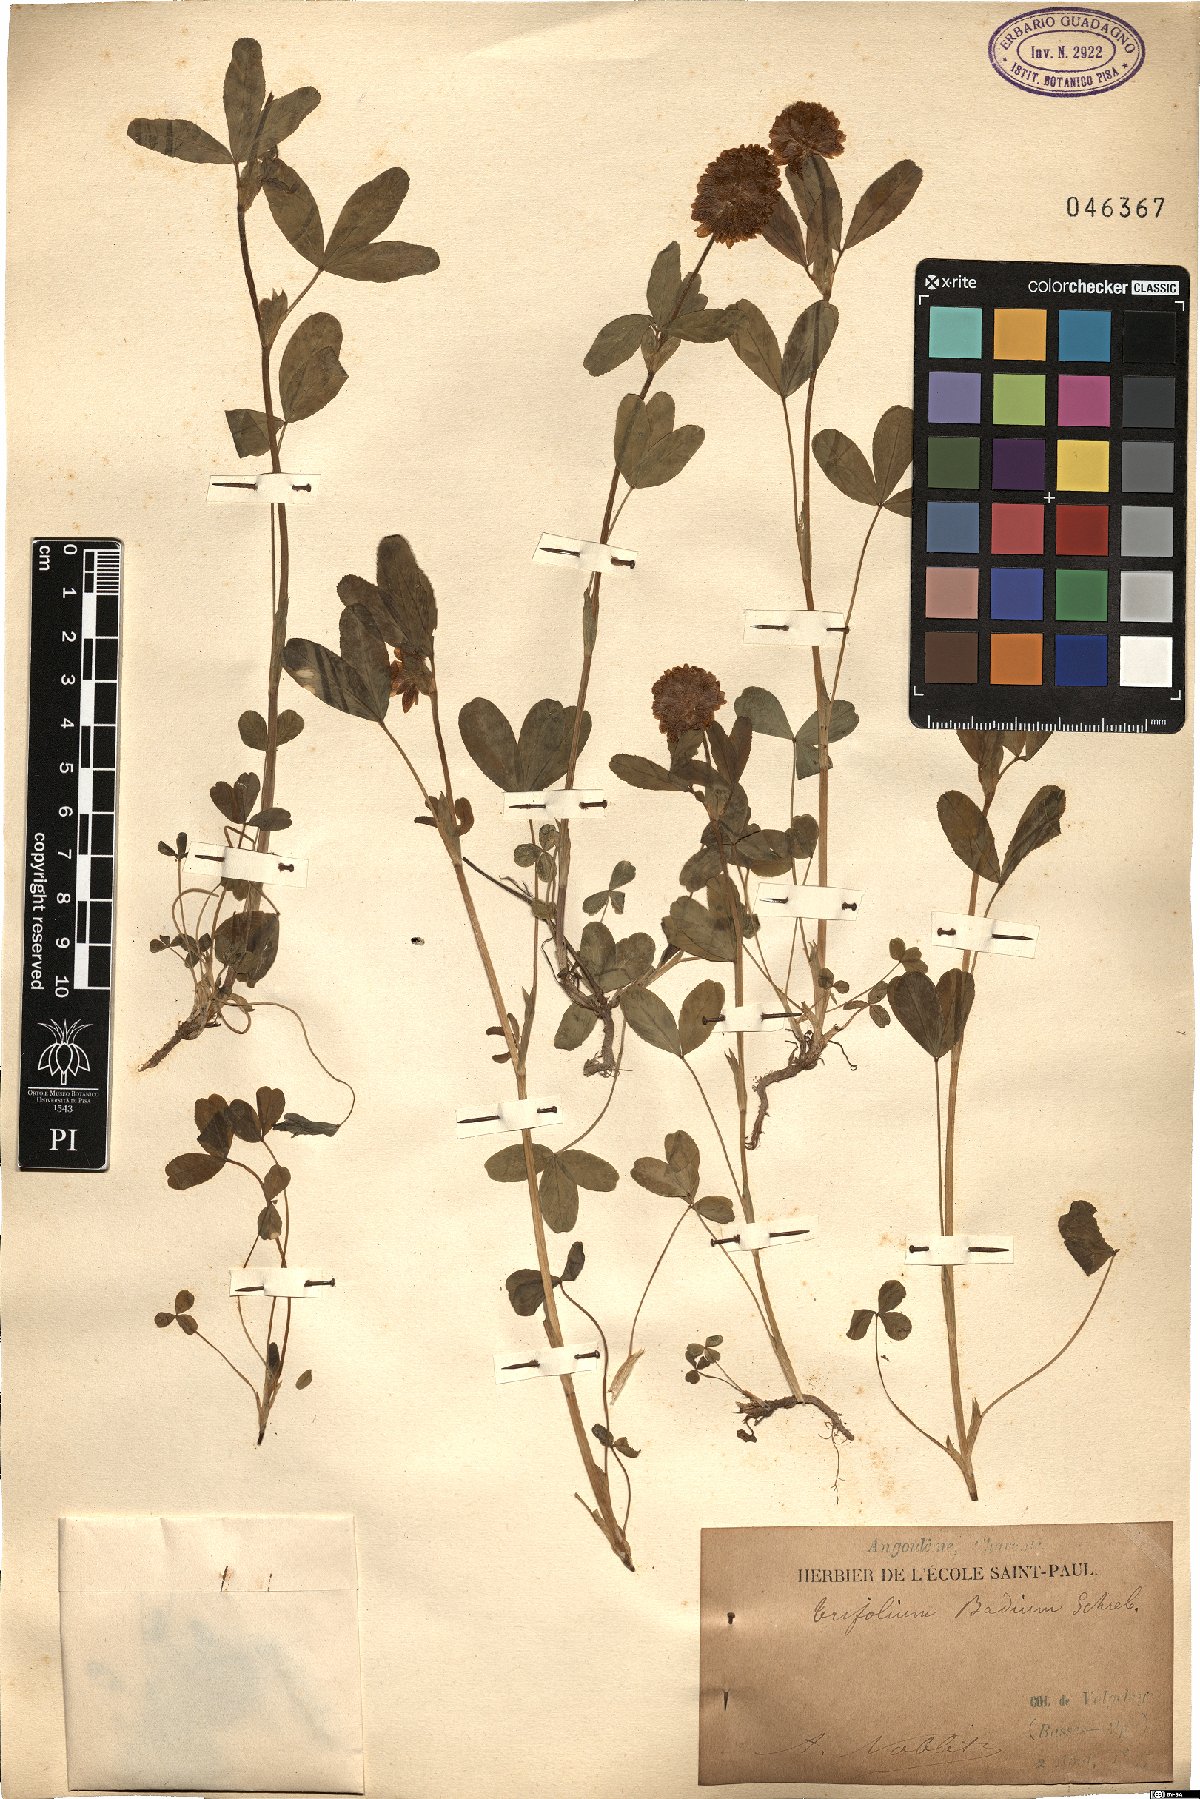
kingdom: Plantae
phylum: Tracheophyta
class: Magnoliopsida
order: Fabales
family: Fabaceae
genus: Trifolium
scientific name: Trifolium badium
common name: Brown clover
